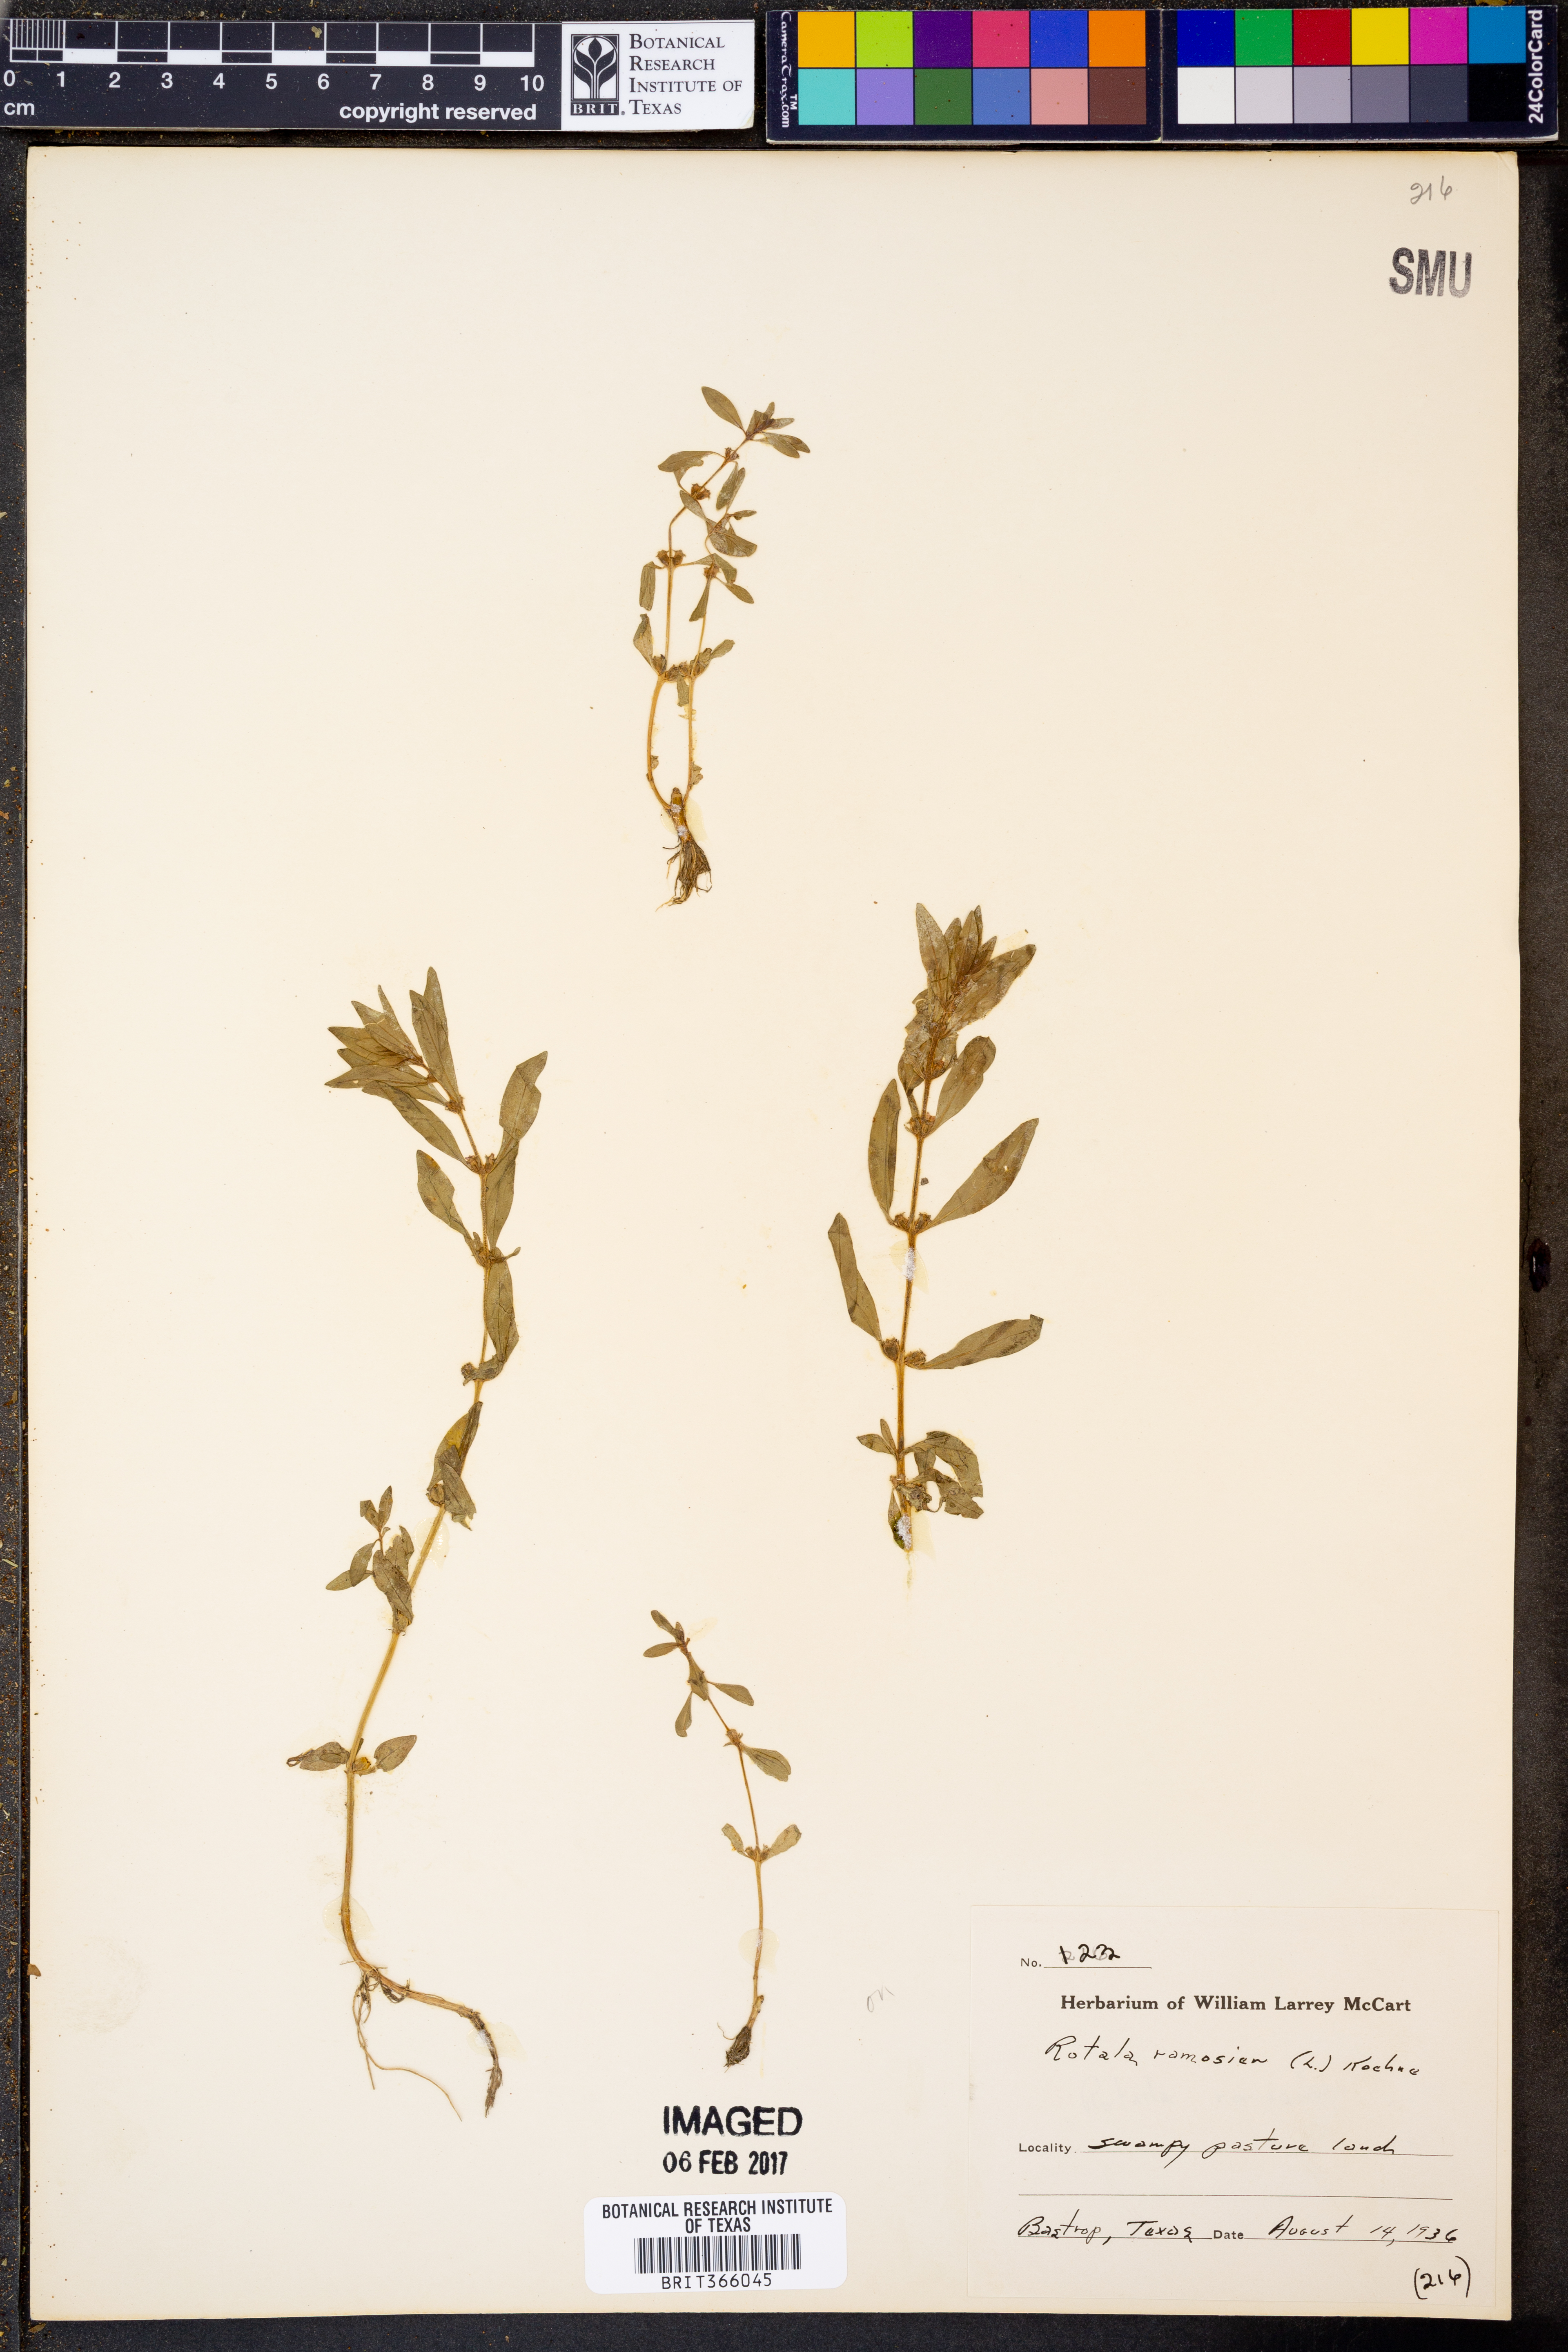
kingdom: Plantae
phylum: Tracheophyta
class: Magnoliopsida
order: Myrtales
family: Lythraceae
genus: Rotala
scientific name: Rotala ramosior
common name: Lowland rotala
